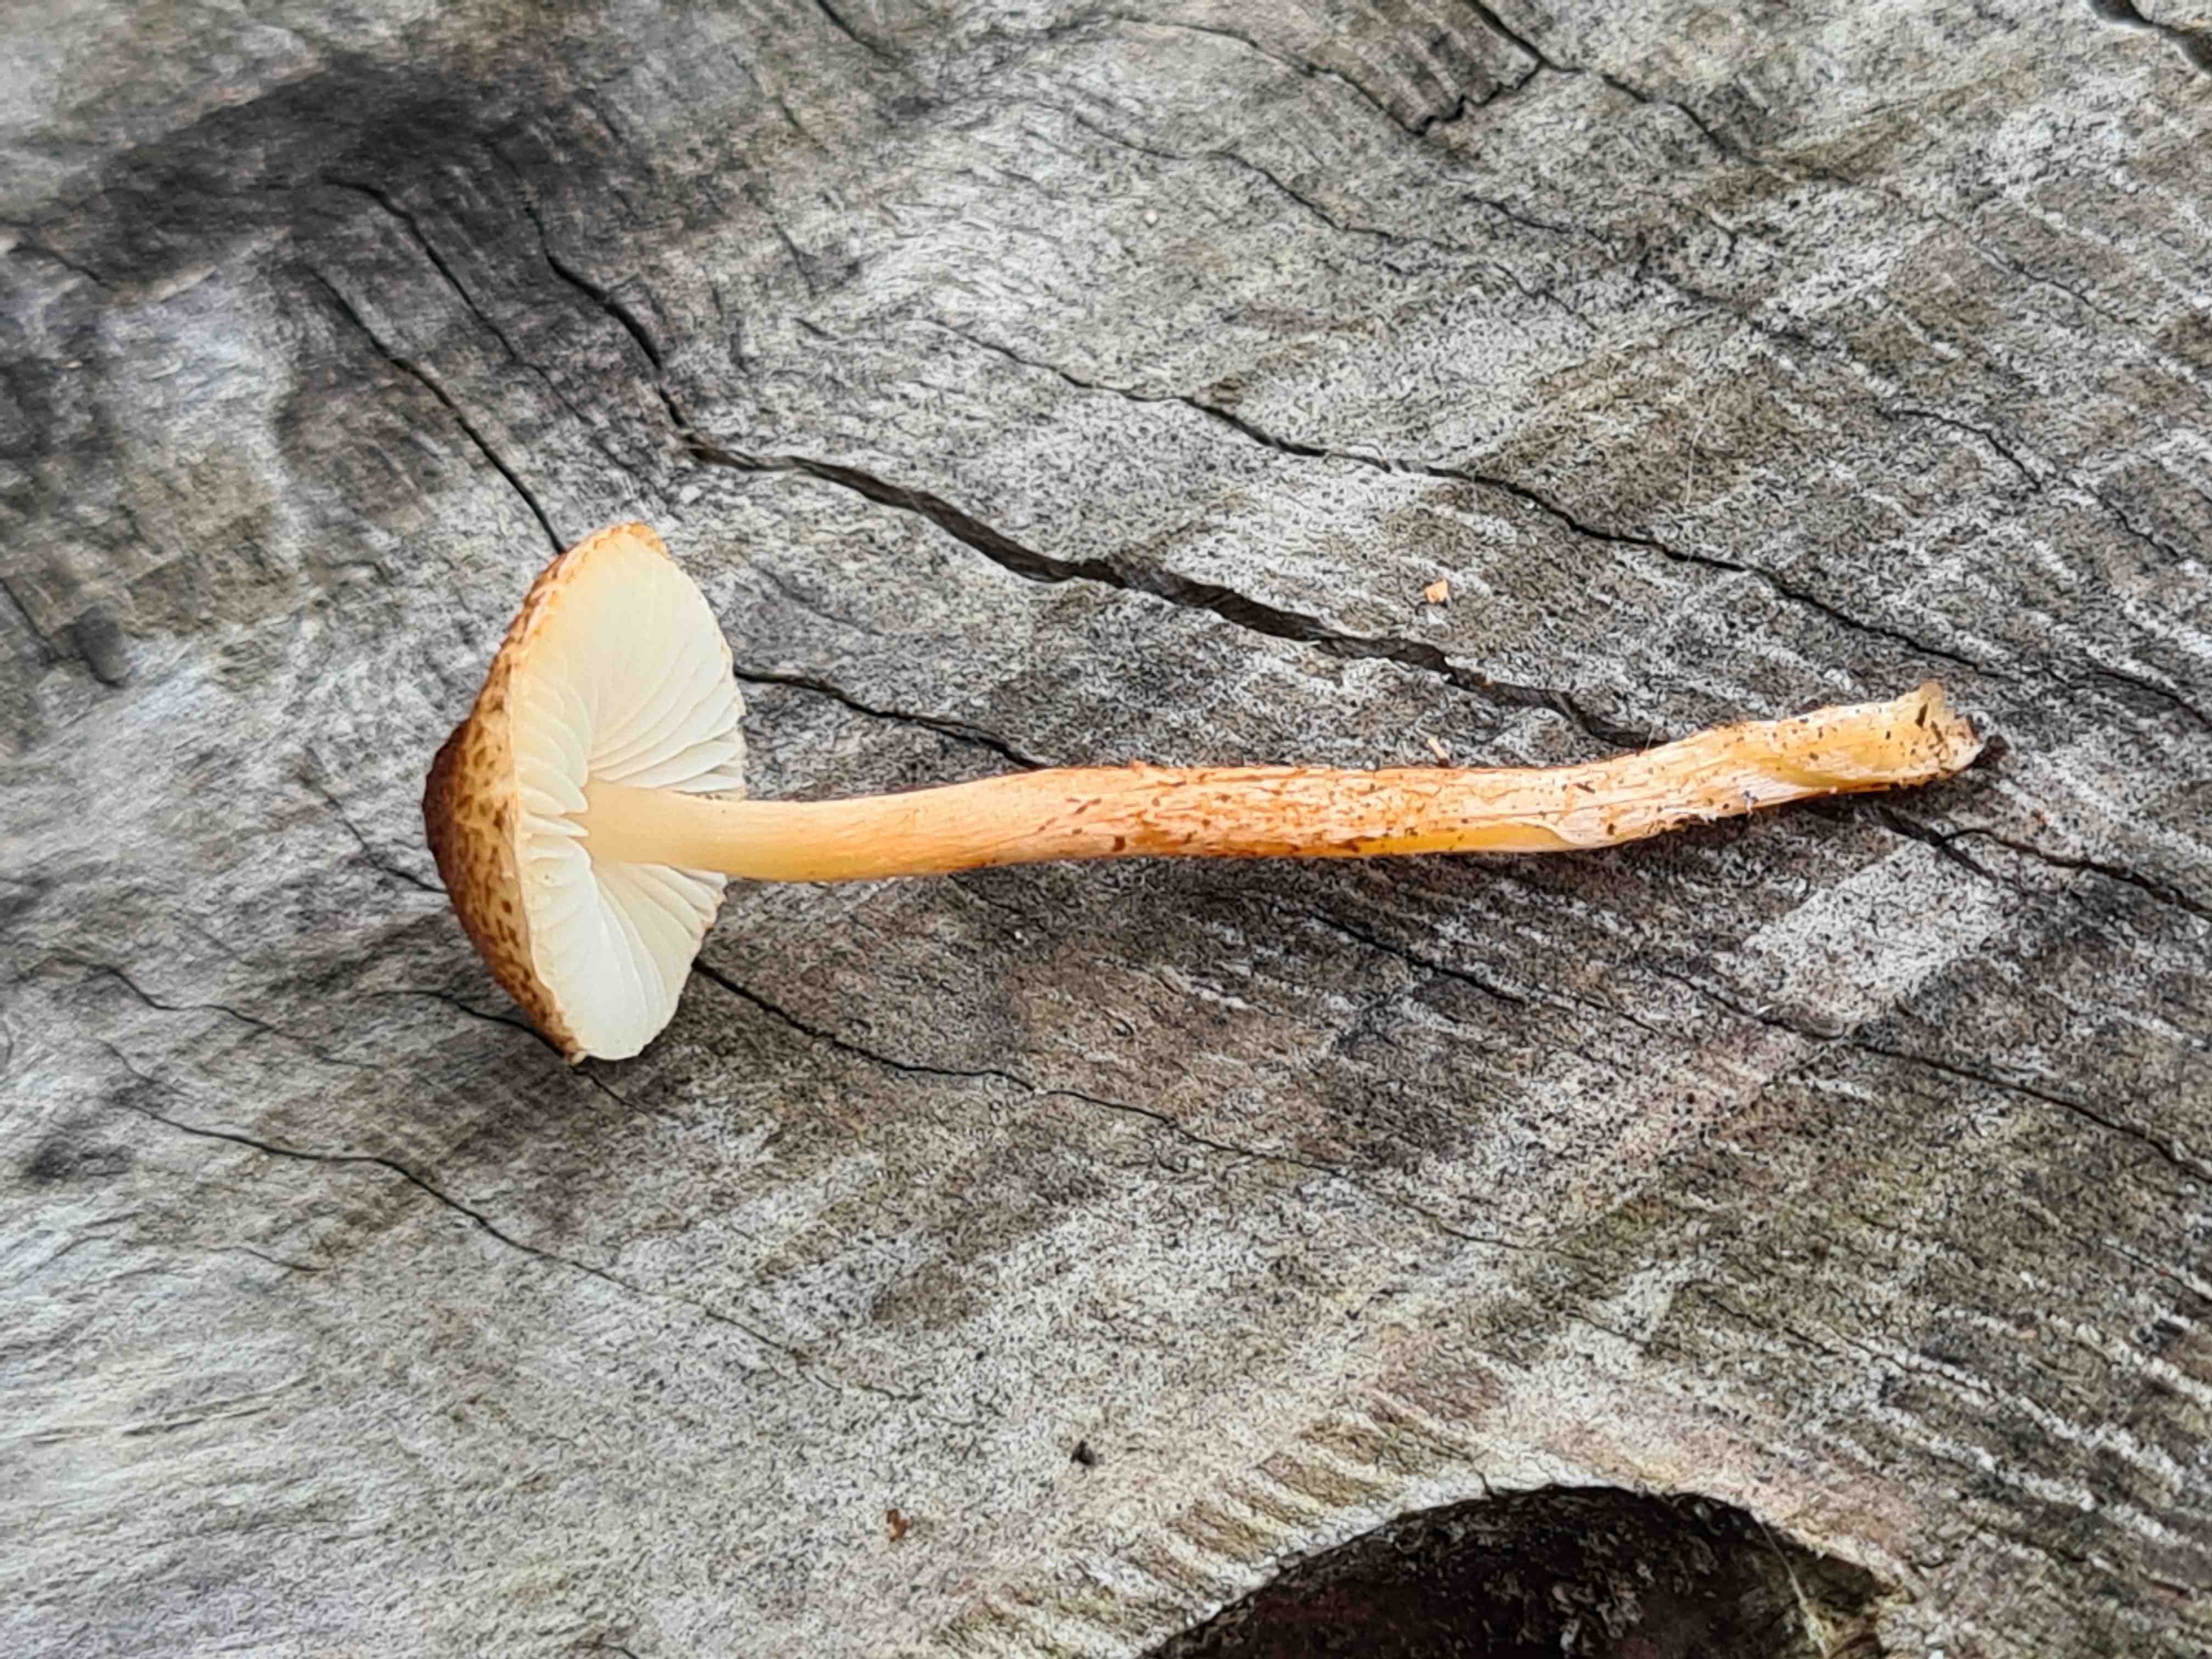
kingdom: Fungi
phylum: Basidiomycota
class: Agaricomycetes
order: Agaricales
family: Agaricaceae
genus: Lepiota
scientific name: Lepiota castanea
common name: kastaniebrun parasolhat
